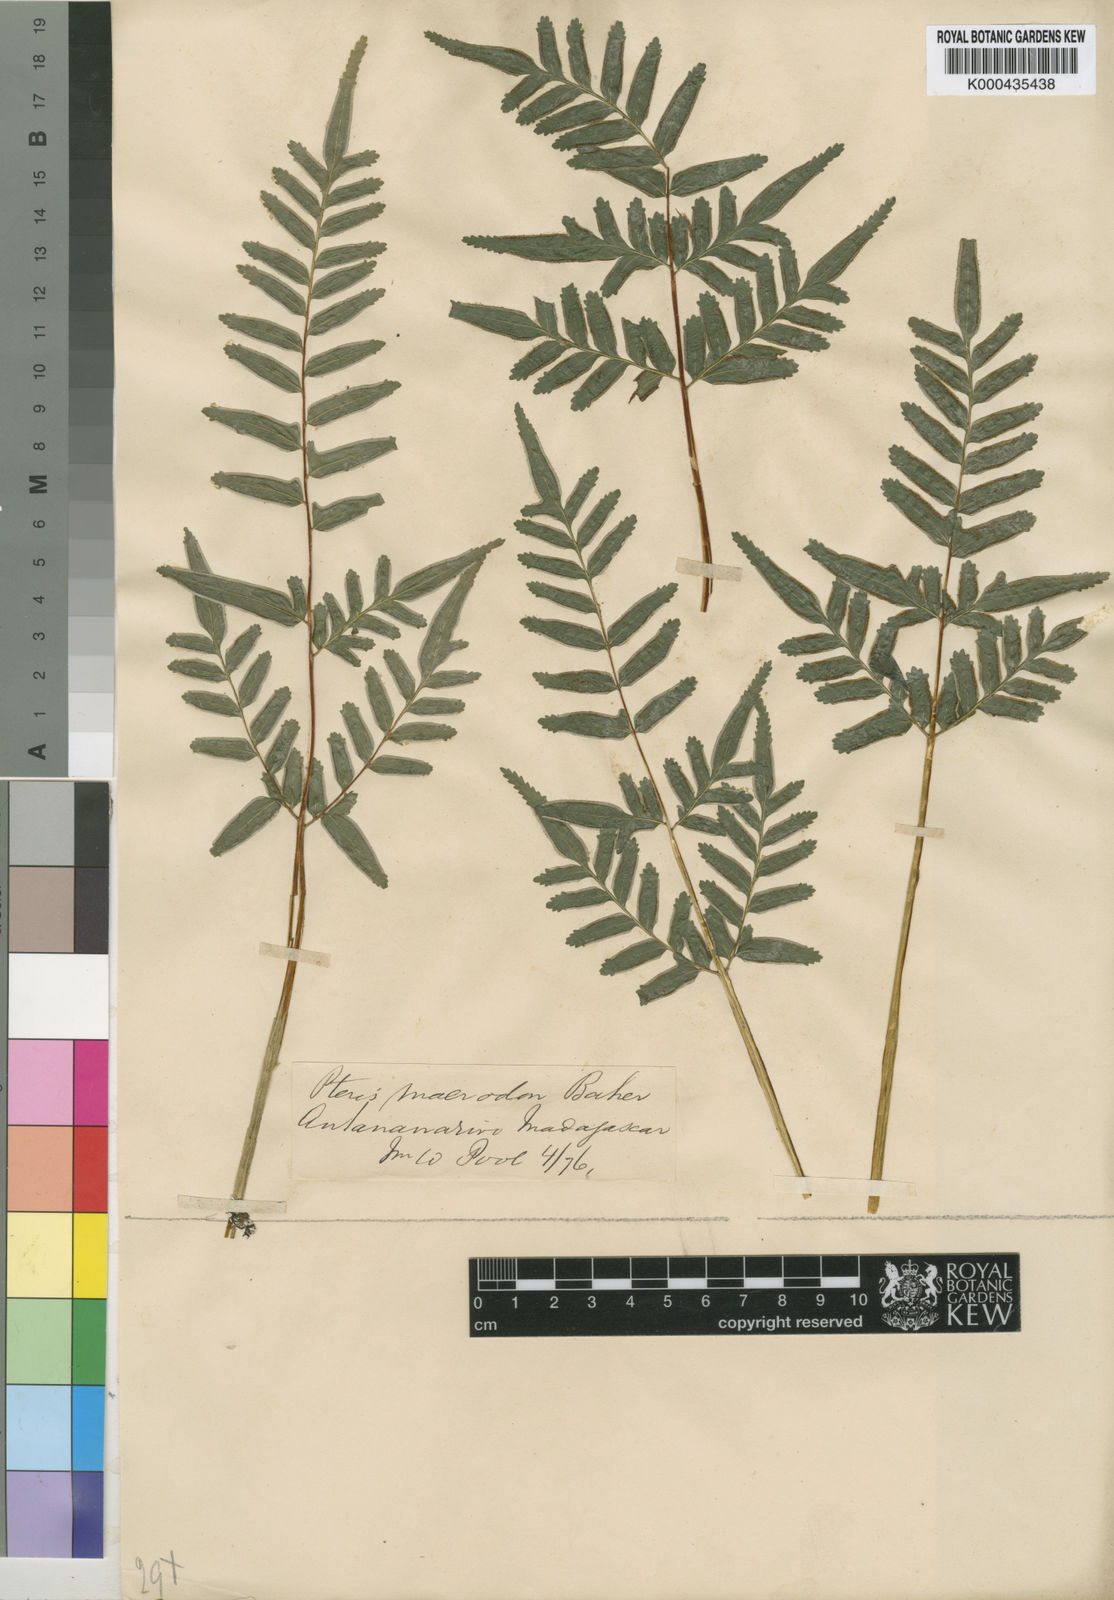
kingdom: Plantae
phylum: Tracheophyta
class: Polypodiopsida
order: Polypodiales
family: Pteridaceae
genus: Pteris
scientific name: Pteris macrodon
